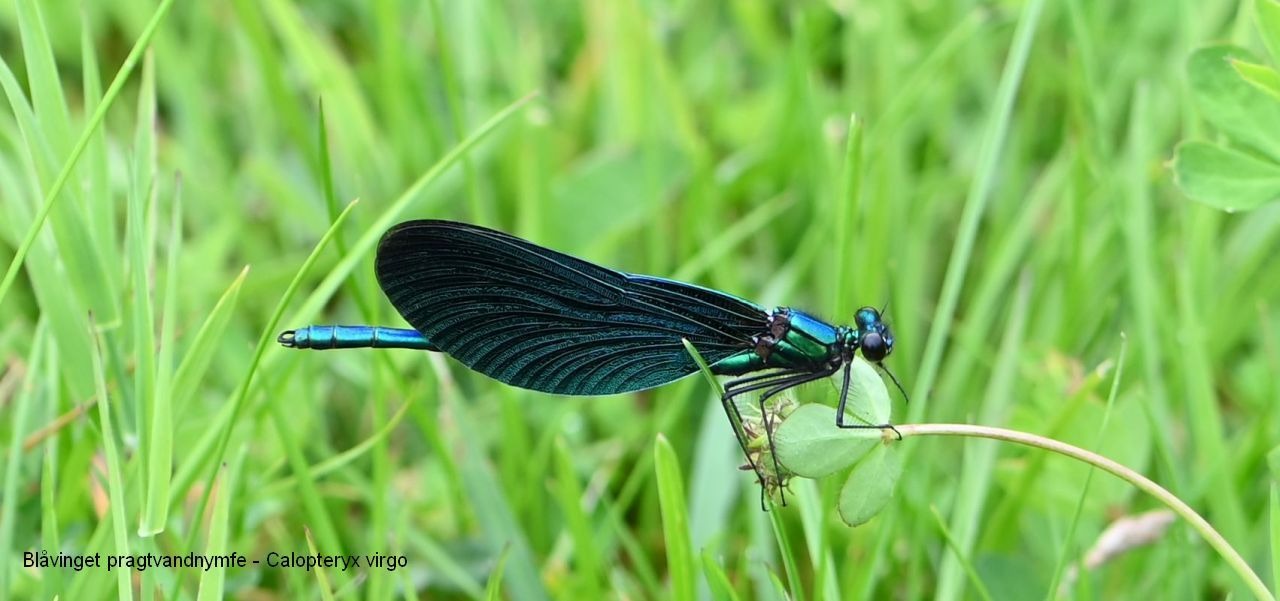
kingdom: Animalia
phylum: Arthropoda
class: Insecta
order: Odonata
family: Calopterygidae
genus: Calopteryx
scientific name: Calopteryx virgo
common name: Blåvinget pragtvandnymfe
